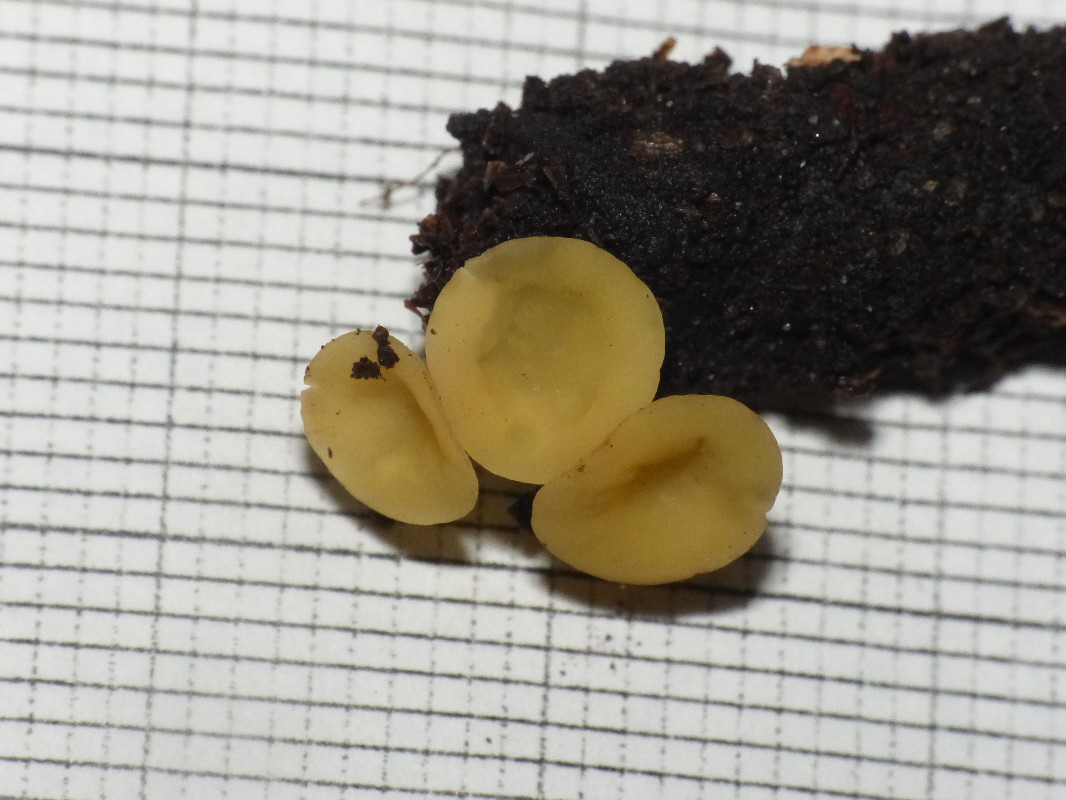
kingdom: Fungi
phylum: Ascomycota
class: Leotiomycetes
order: Helotiales
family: Helotiaceae
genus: Hymenoscyphus
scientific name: Hymenoscyphus serotinus
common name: krumsporet stilkskive
